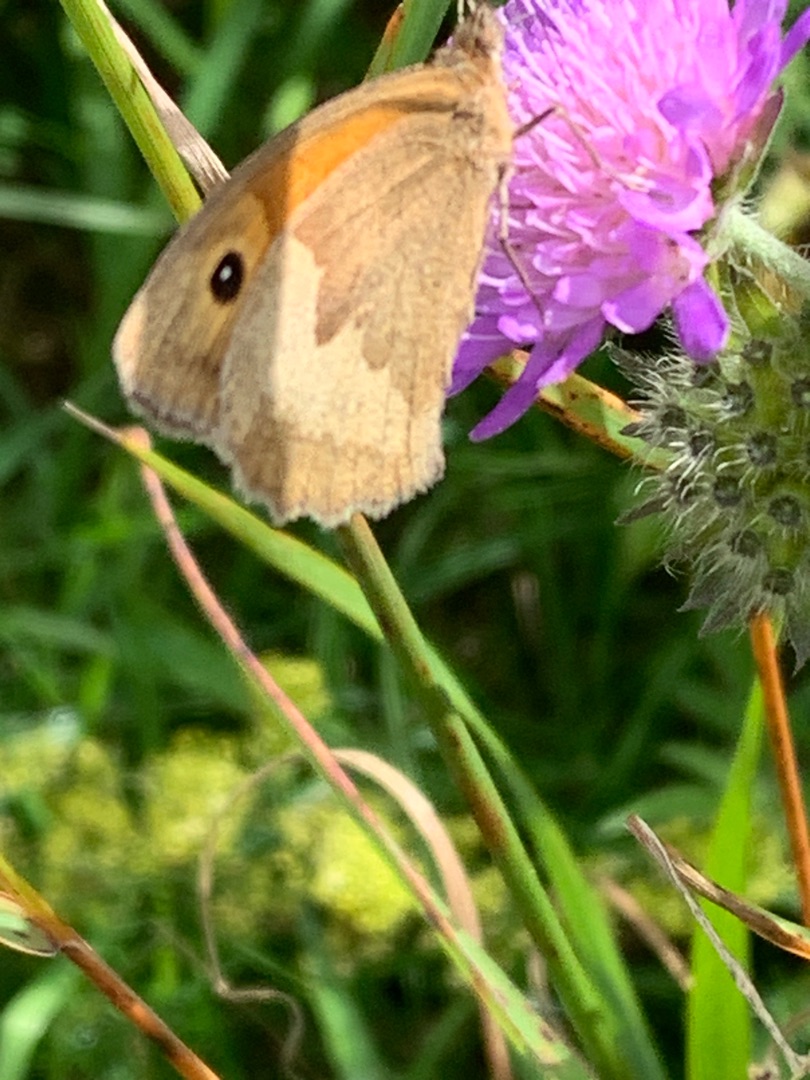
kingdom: Animalia
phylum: Arthropoda
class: Insecta
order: Lepidoptera
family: Nymphalidae
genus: Maniola
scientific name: Maniola jurtina
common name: Græsrandøje
